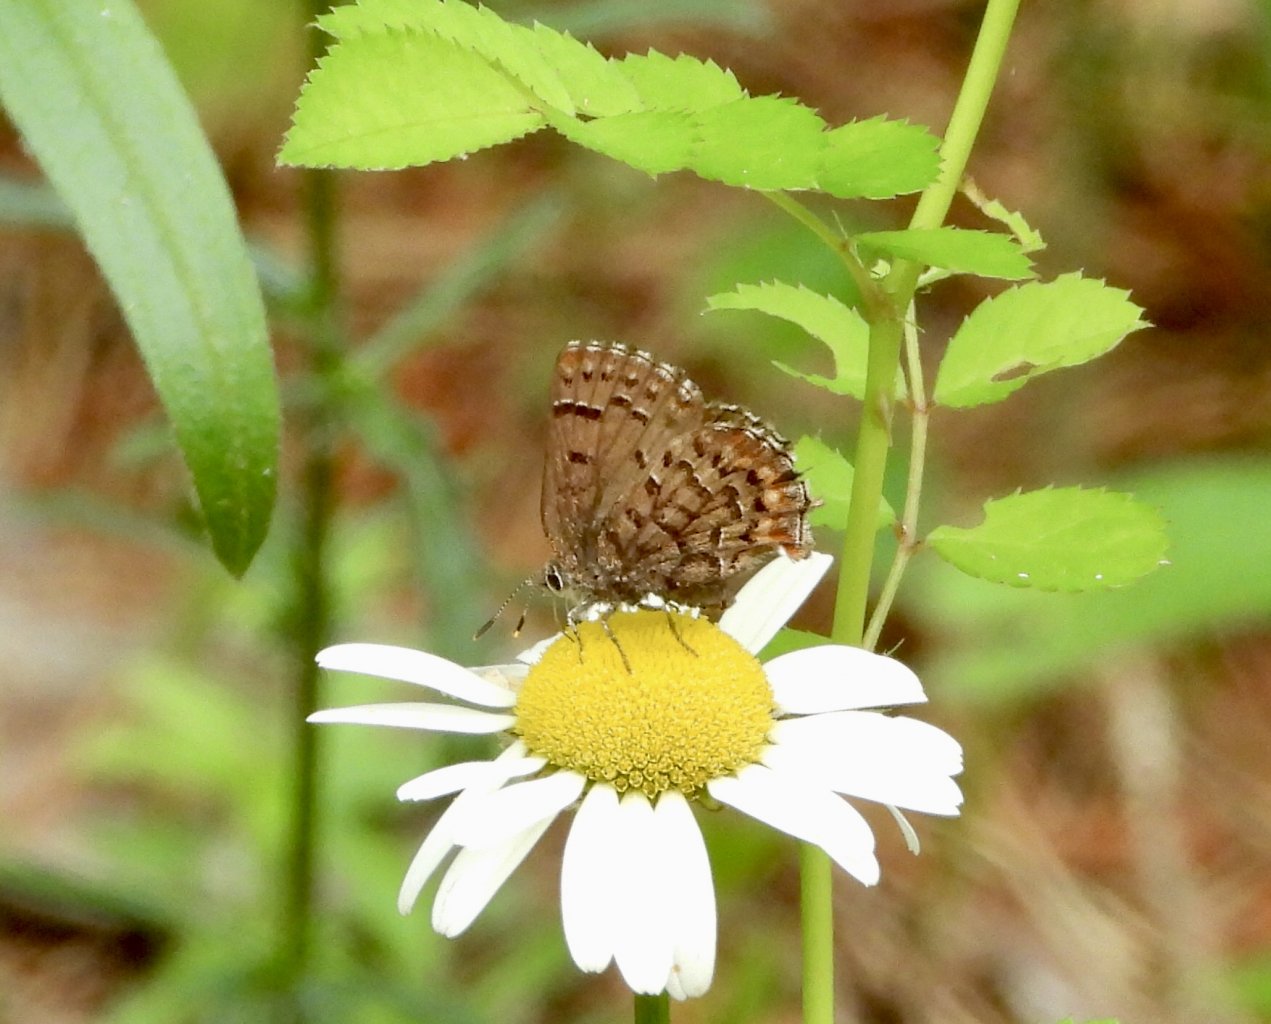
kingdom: Animalia
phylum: Arthropoda
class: Insecta
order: Lepidoptera
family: Lycaenidae
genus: Incisalia
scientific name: Incisalia niphon
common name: Eastern Pine Elfin
